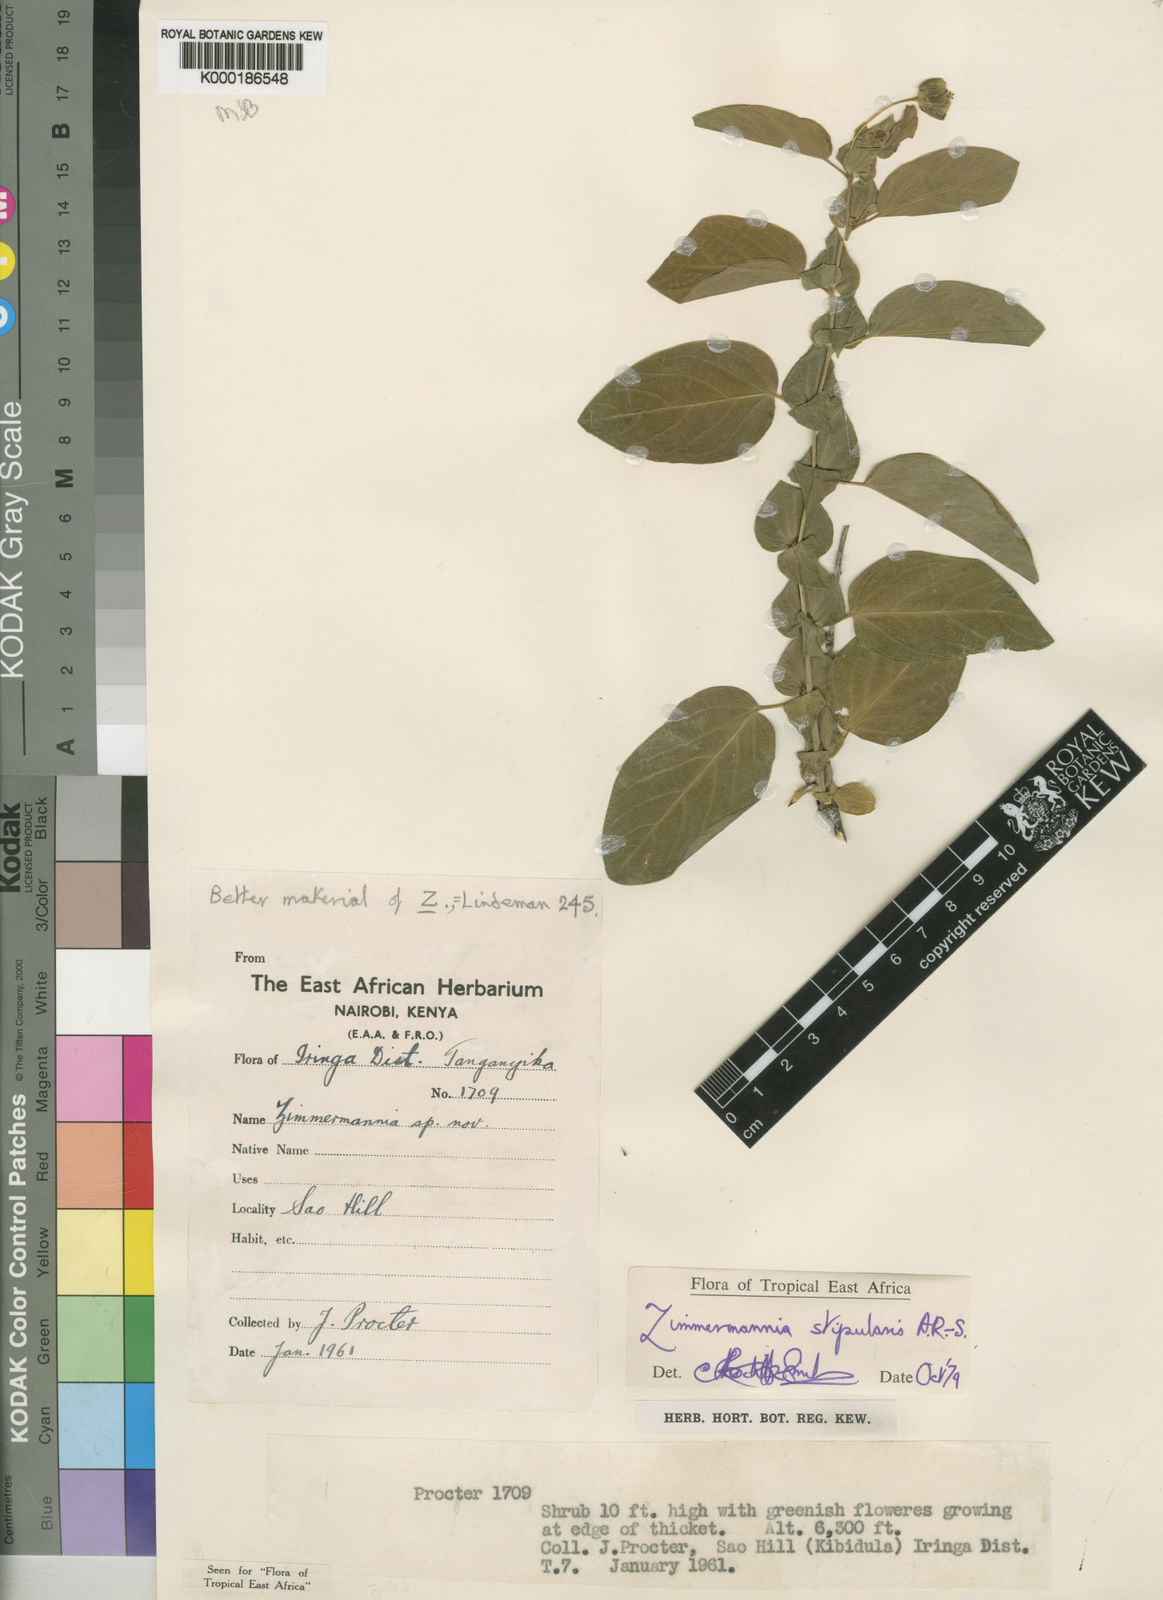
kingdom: Plantae
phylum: Tracheophyta
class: Magnoliopsida
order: Malpighiales
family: Phyllanthaceae
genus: Meineckia
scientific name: Meineckia stipularis
